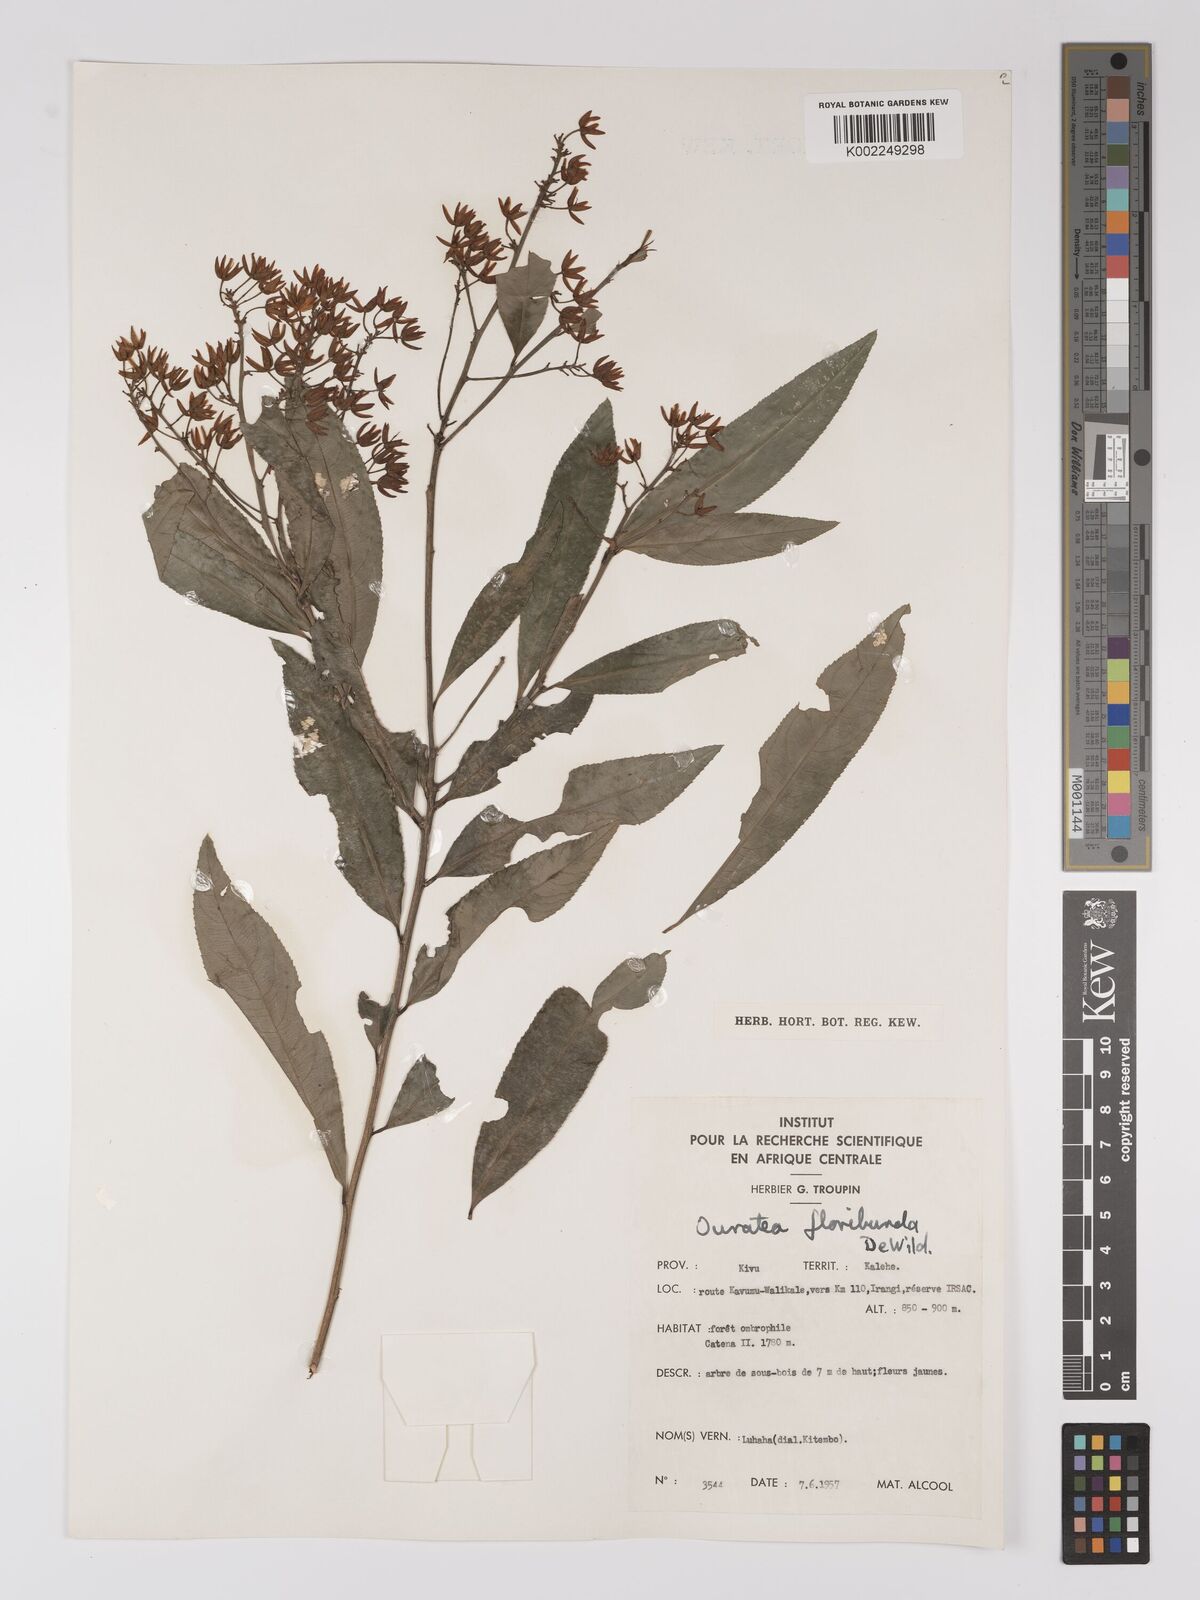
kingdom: Plantae
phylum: Tracheophyta
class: Magnoliopsida
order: Malpighiales
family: Ochnaceae
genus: Campylospermum
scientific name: Campylospermum likimiense
